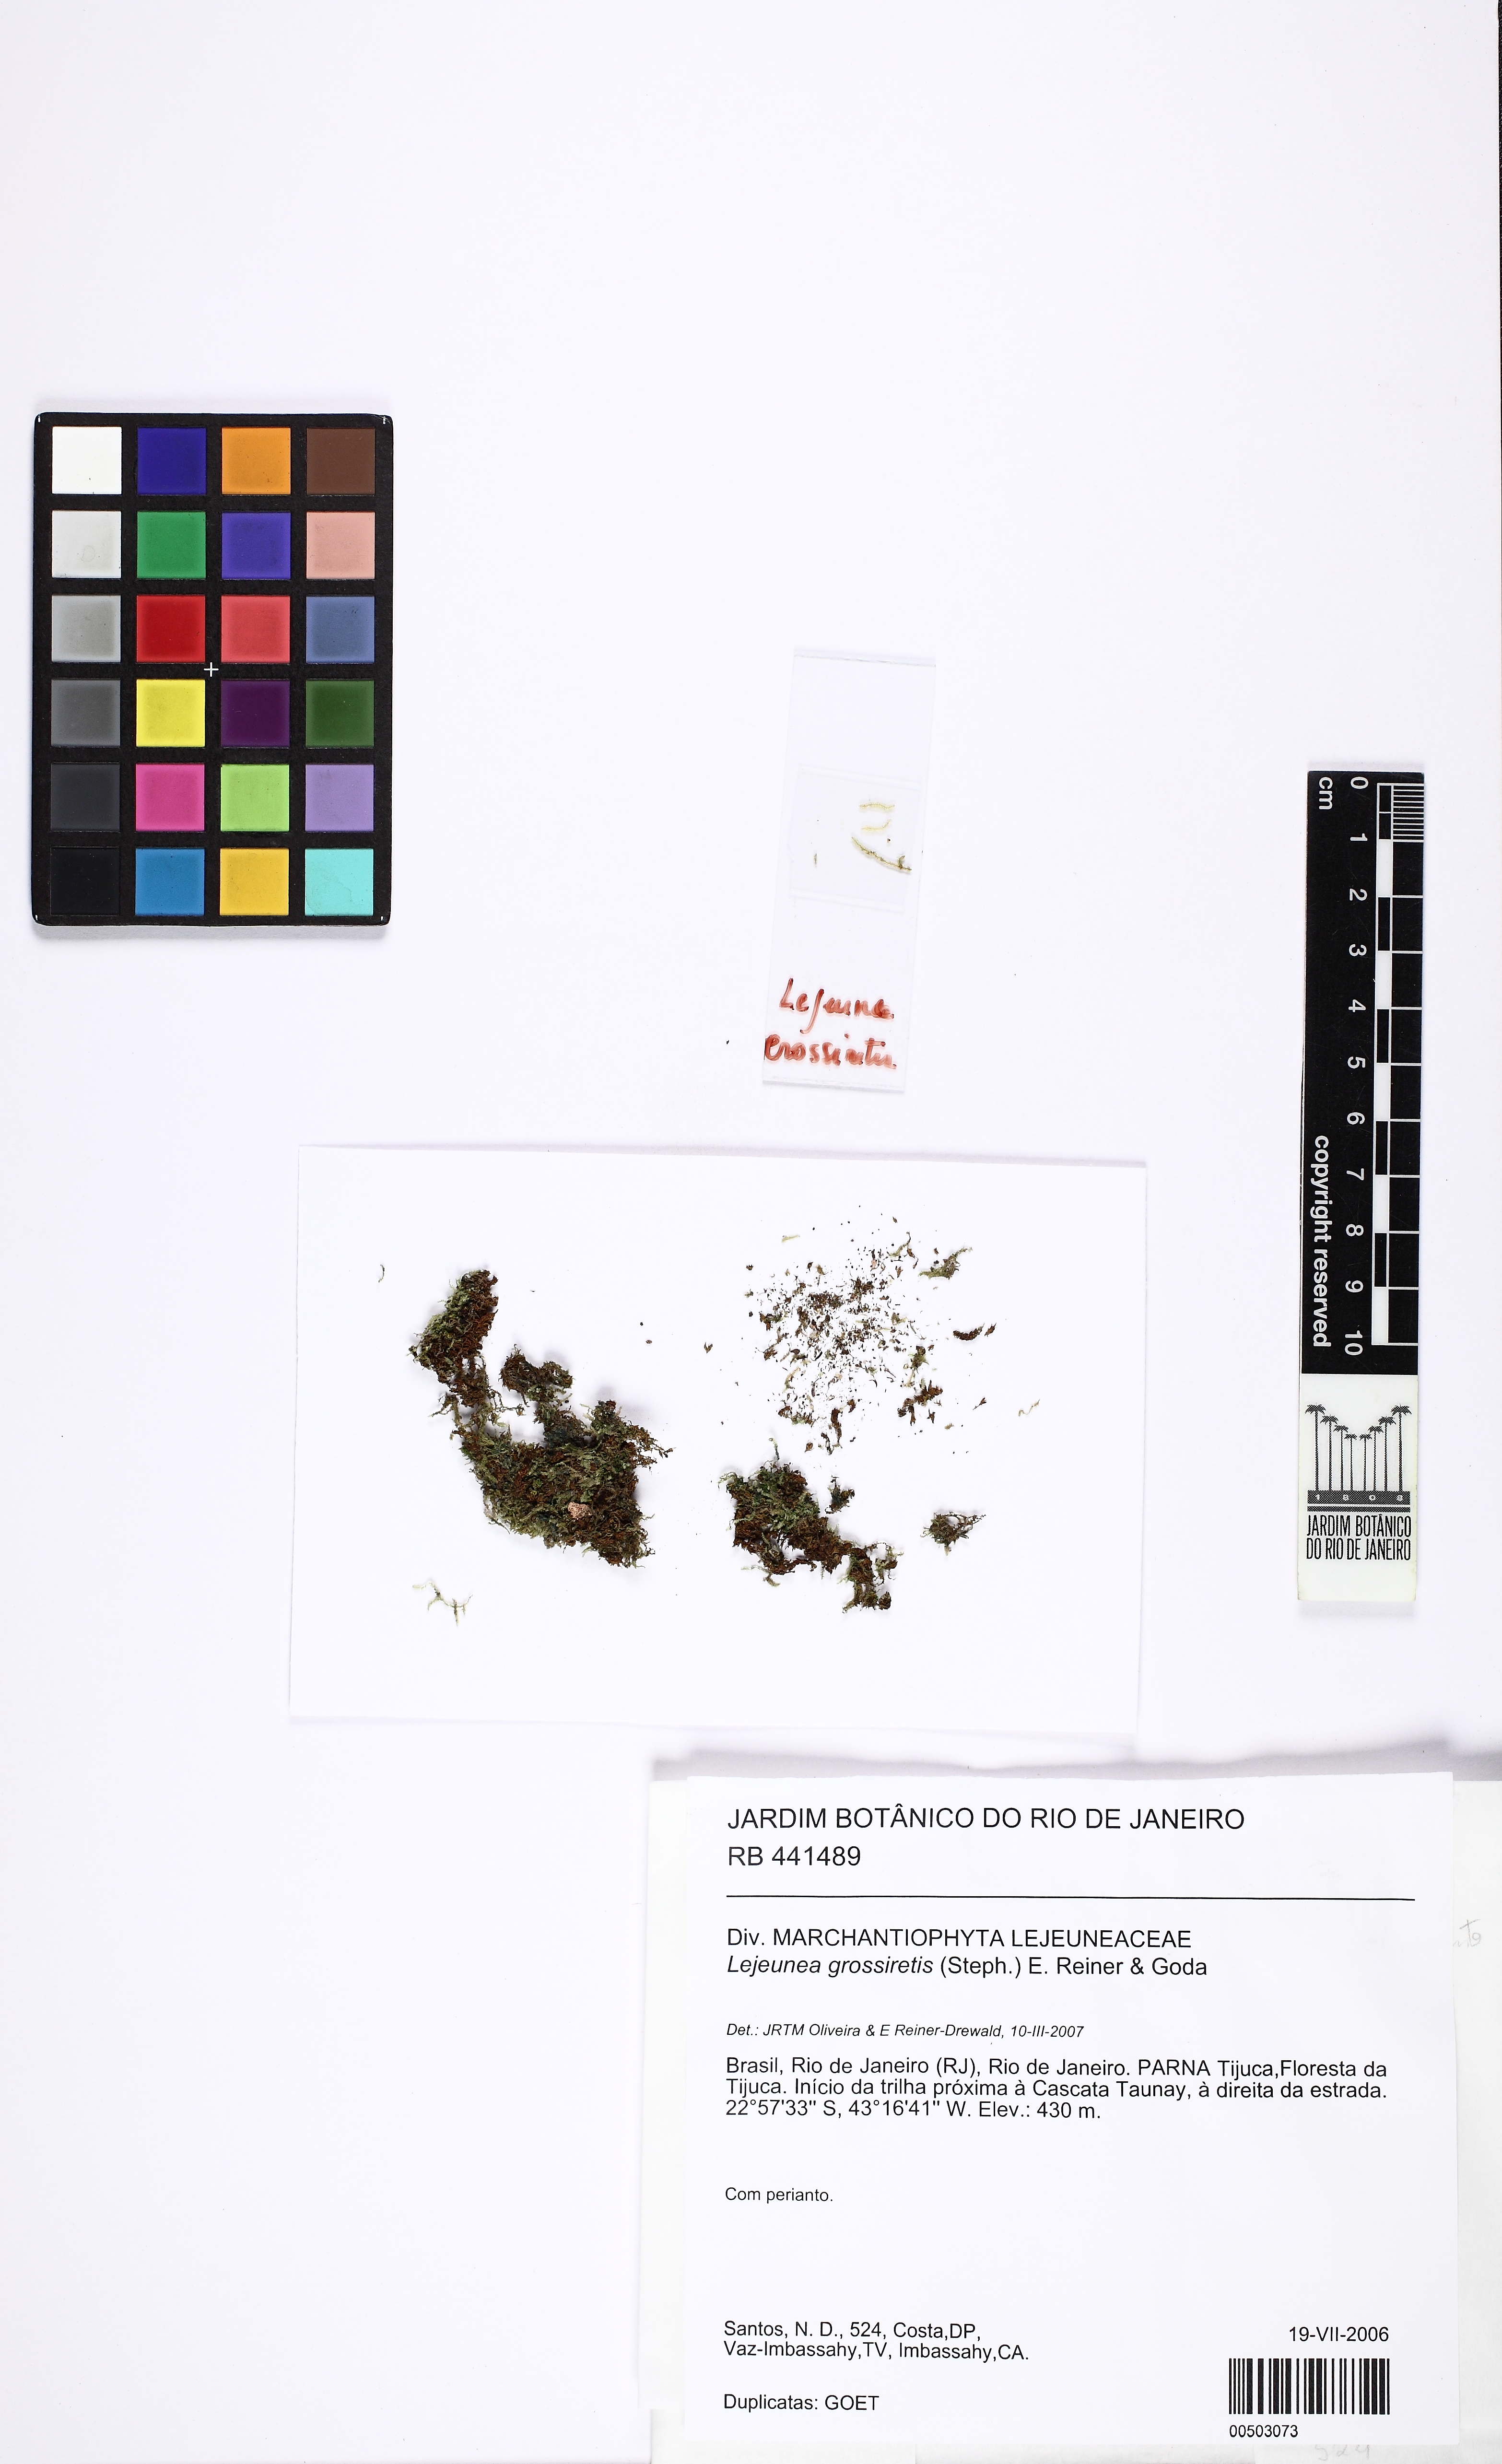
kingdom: Plantae
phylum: Marchantiophyta
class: Jungermanniopsida
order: Porellales
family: Lejeuneaceae
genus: Lejeunea
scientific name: Lejeunea acanthogona
